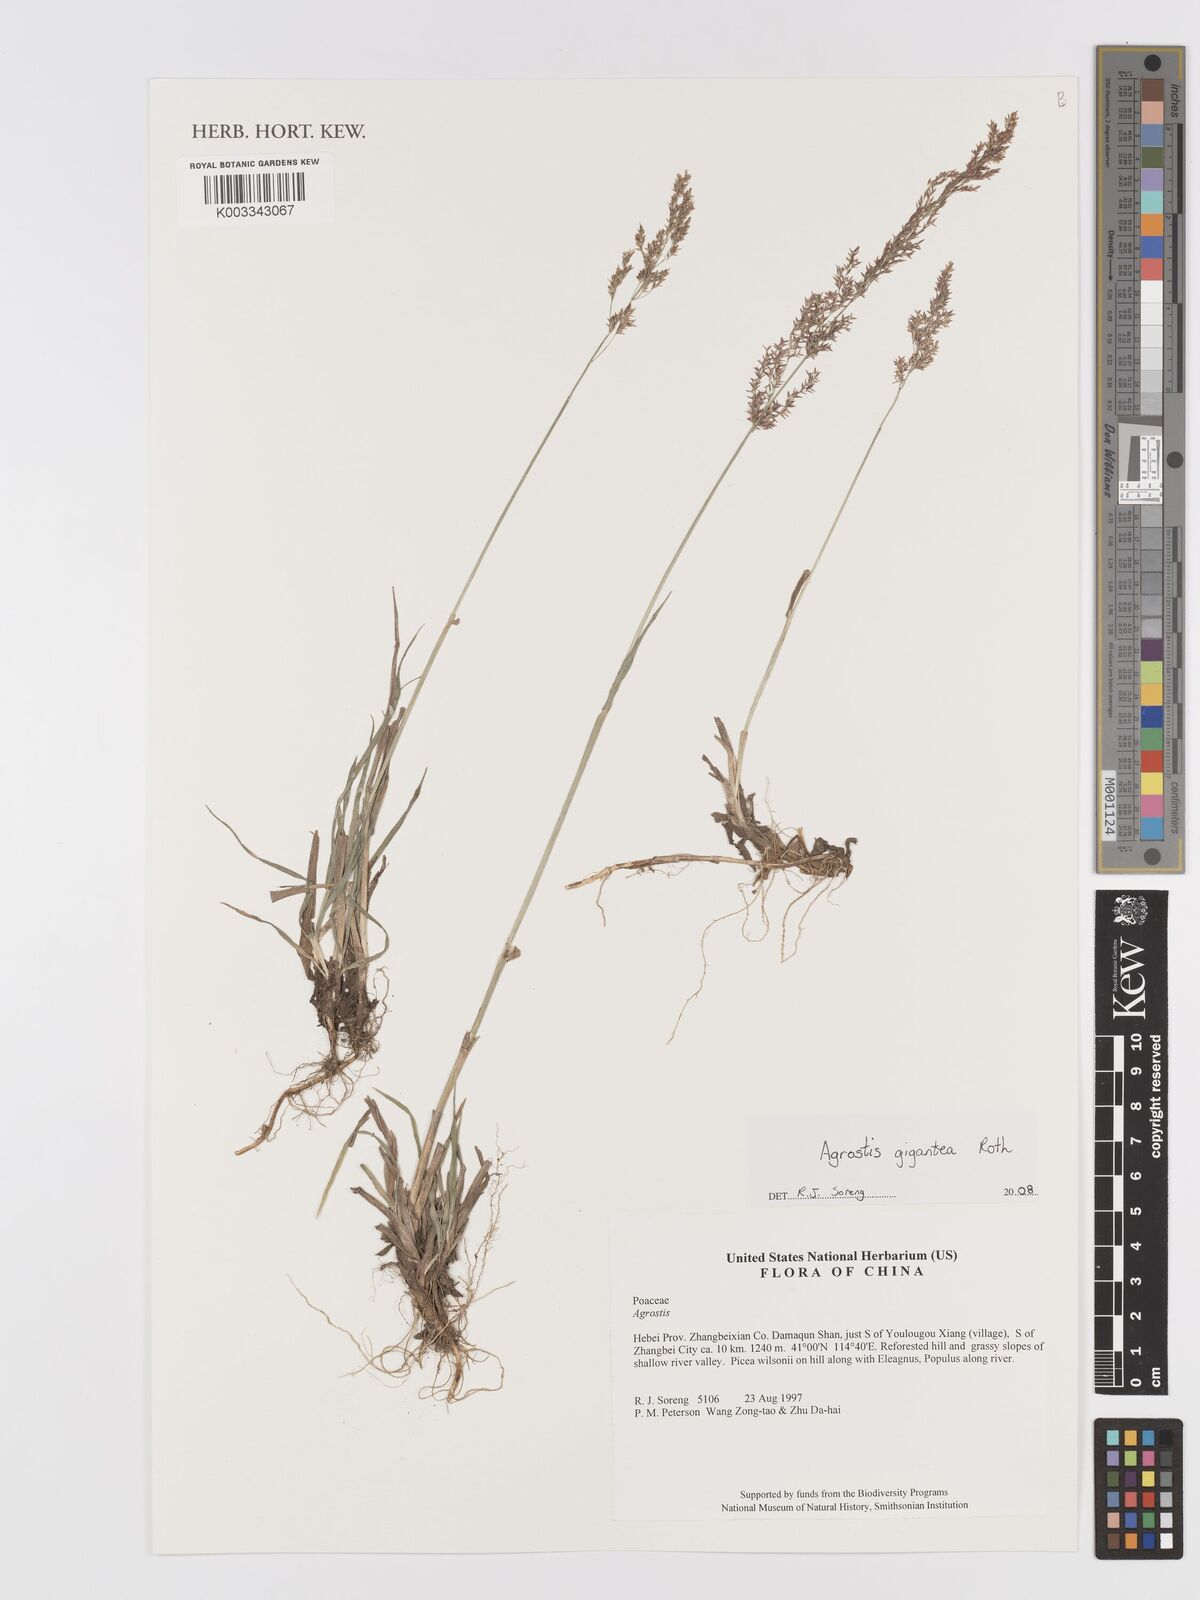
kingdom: Plantae
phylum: Tracheophyta
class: Liliopsida
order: Poales
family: Poaceae
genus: Agrostis
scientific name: Agrostis gigantea
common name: Black bent
